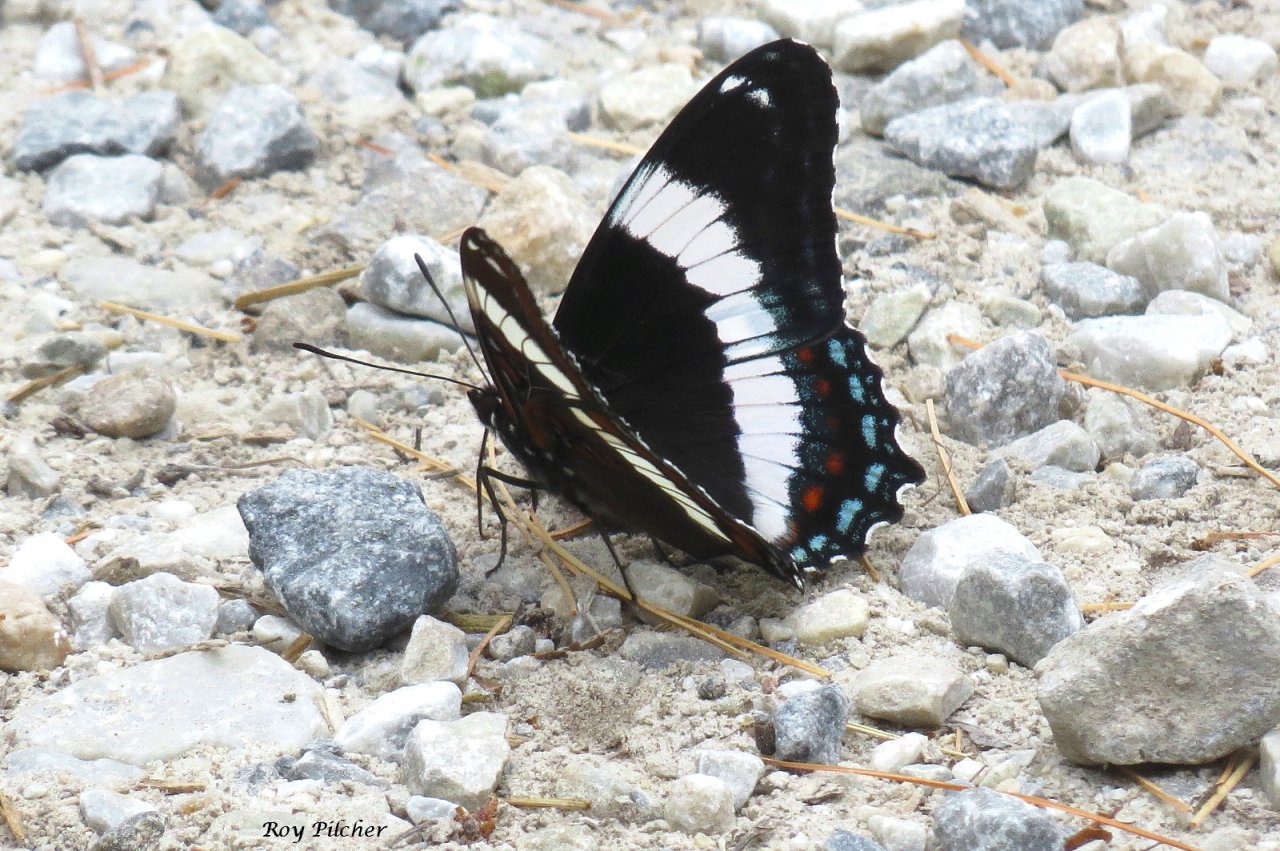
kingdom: Animalia
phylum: Arthropoda
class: Insecta
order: Lepidoptera
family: Nymphalidae
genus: Limenitis
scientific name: Limenitis arthemis
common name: Red-spotted Admiral
